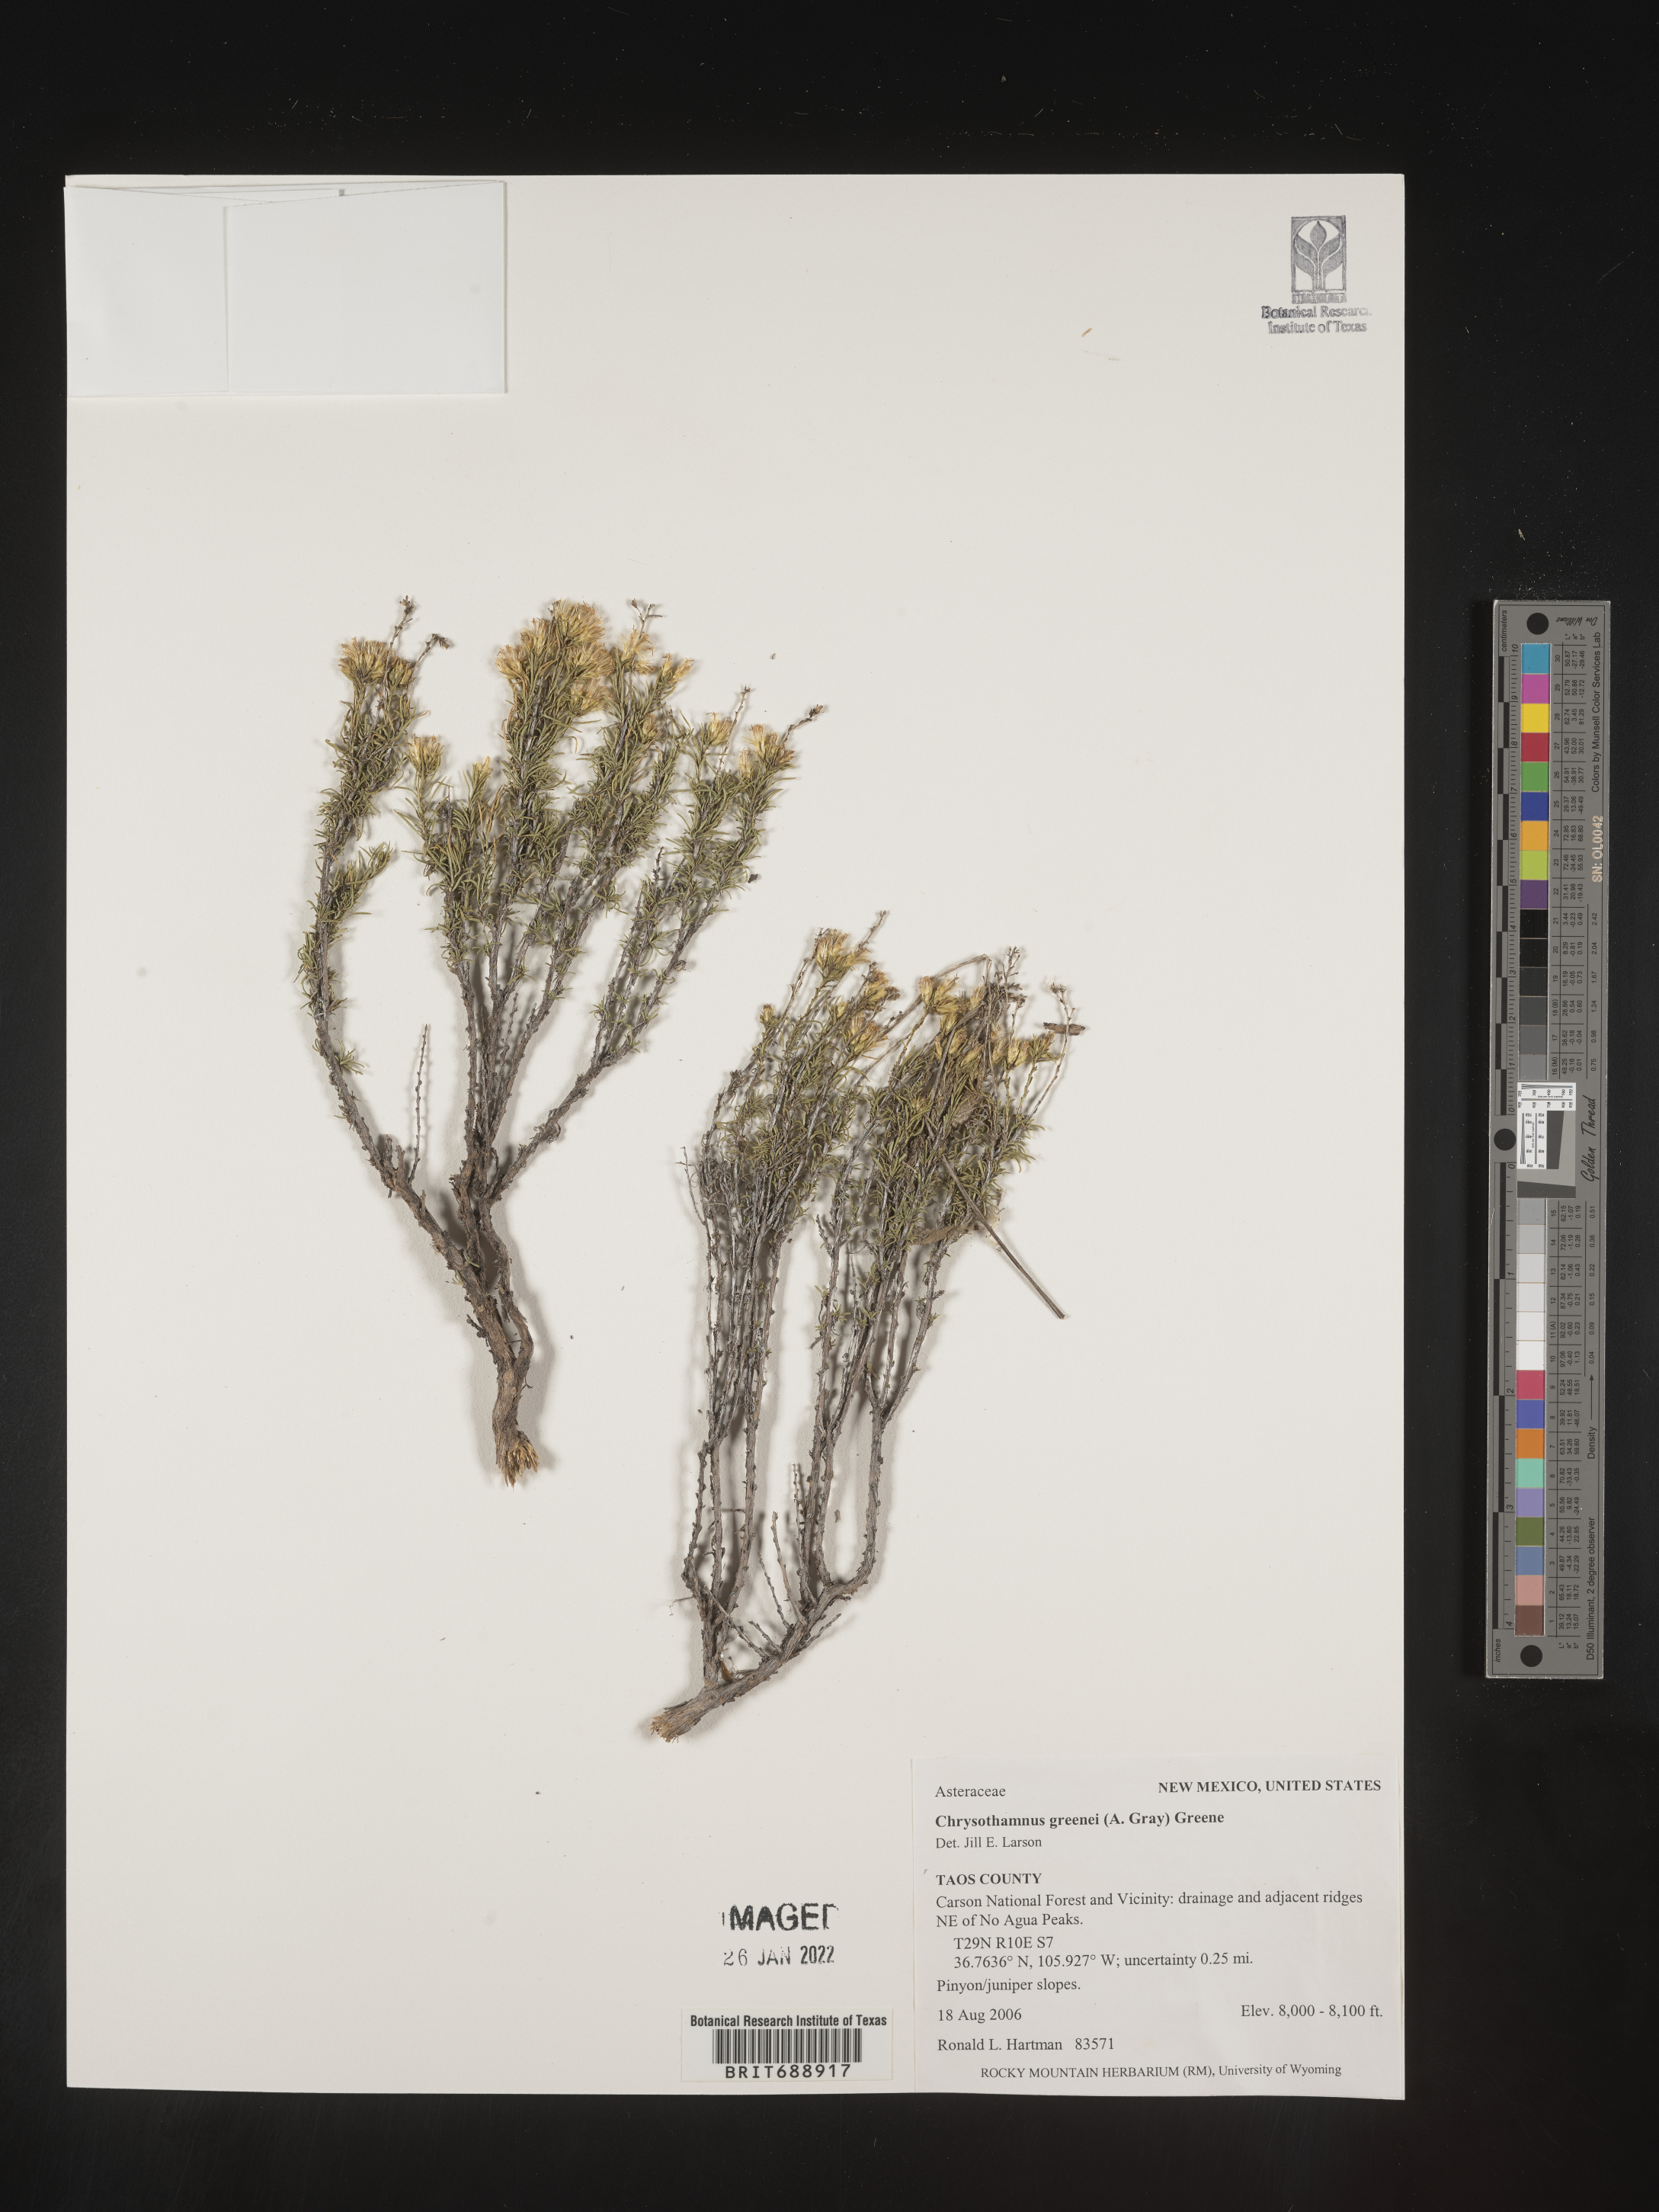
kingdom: Plantae
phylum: Tracheophyta
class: Magnoliopsida
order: Asterales
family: Asteraceae
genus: Chrysothamnus
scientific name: Chrysothamnus greenei
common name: Greene's rabbitbrush
